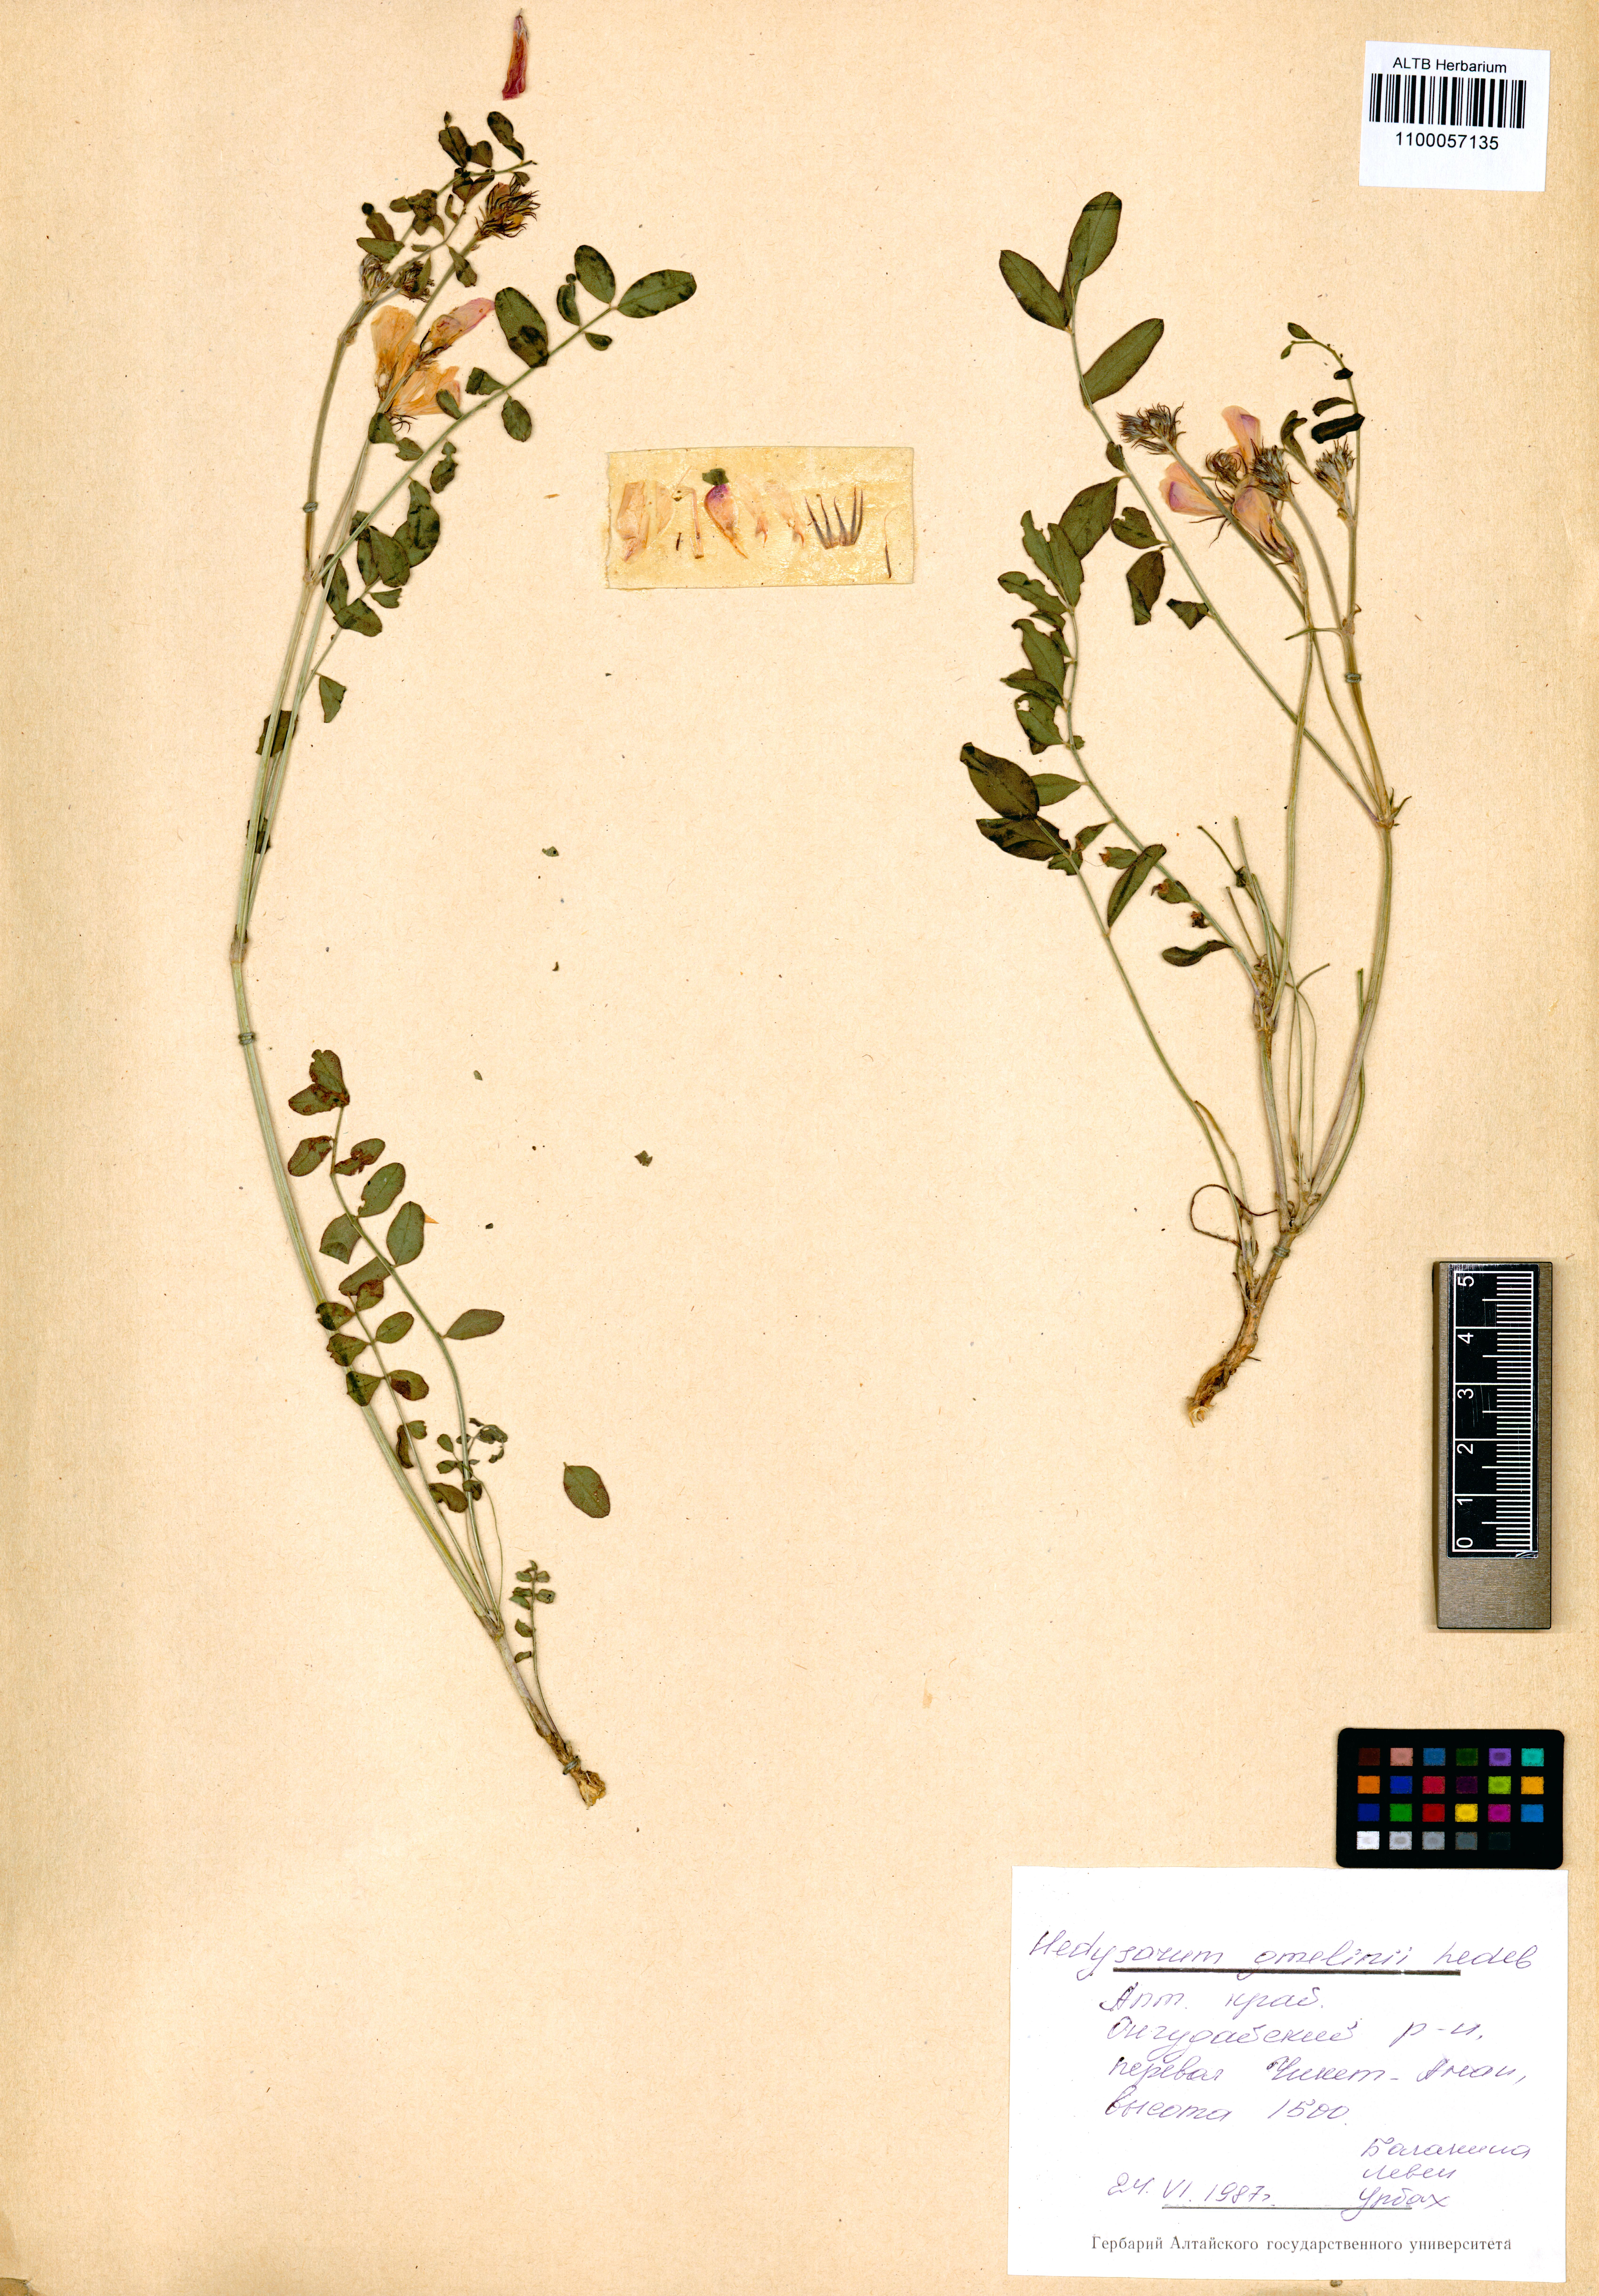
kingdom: Plantae
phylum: Tracheophyta
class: Magnoliopsida
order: Fabales
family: Fabaceae
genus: Hedysarum
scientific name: Hedysarum gmelinii
